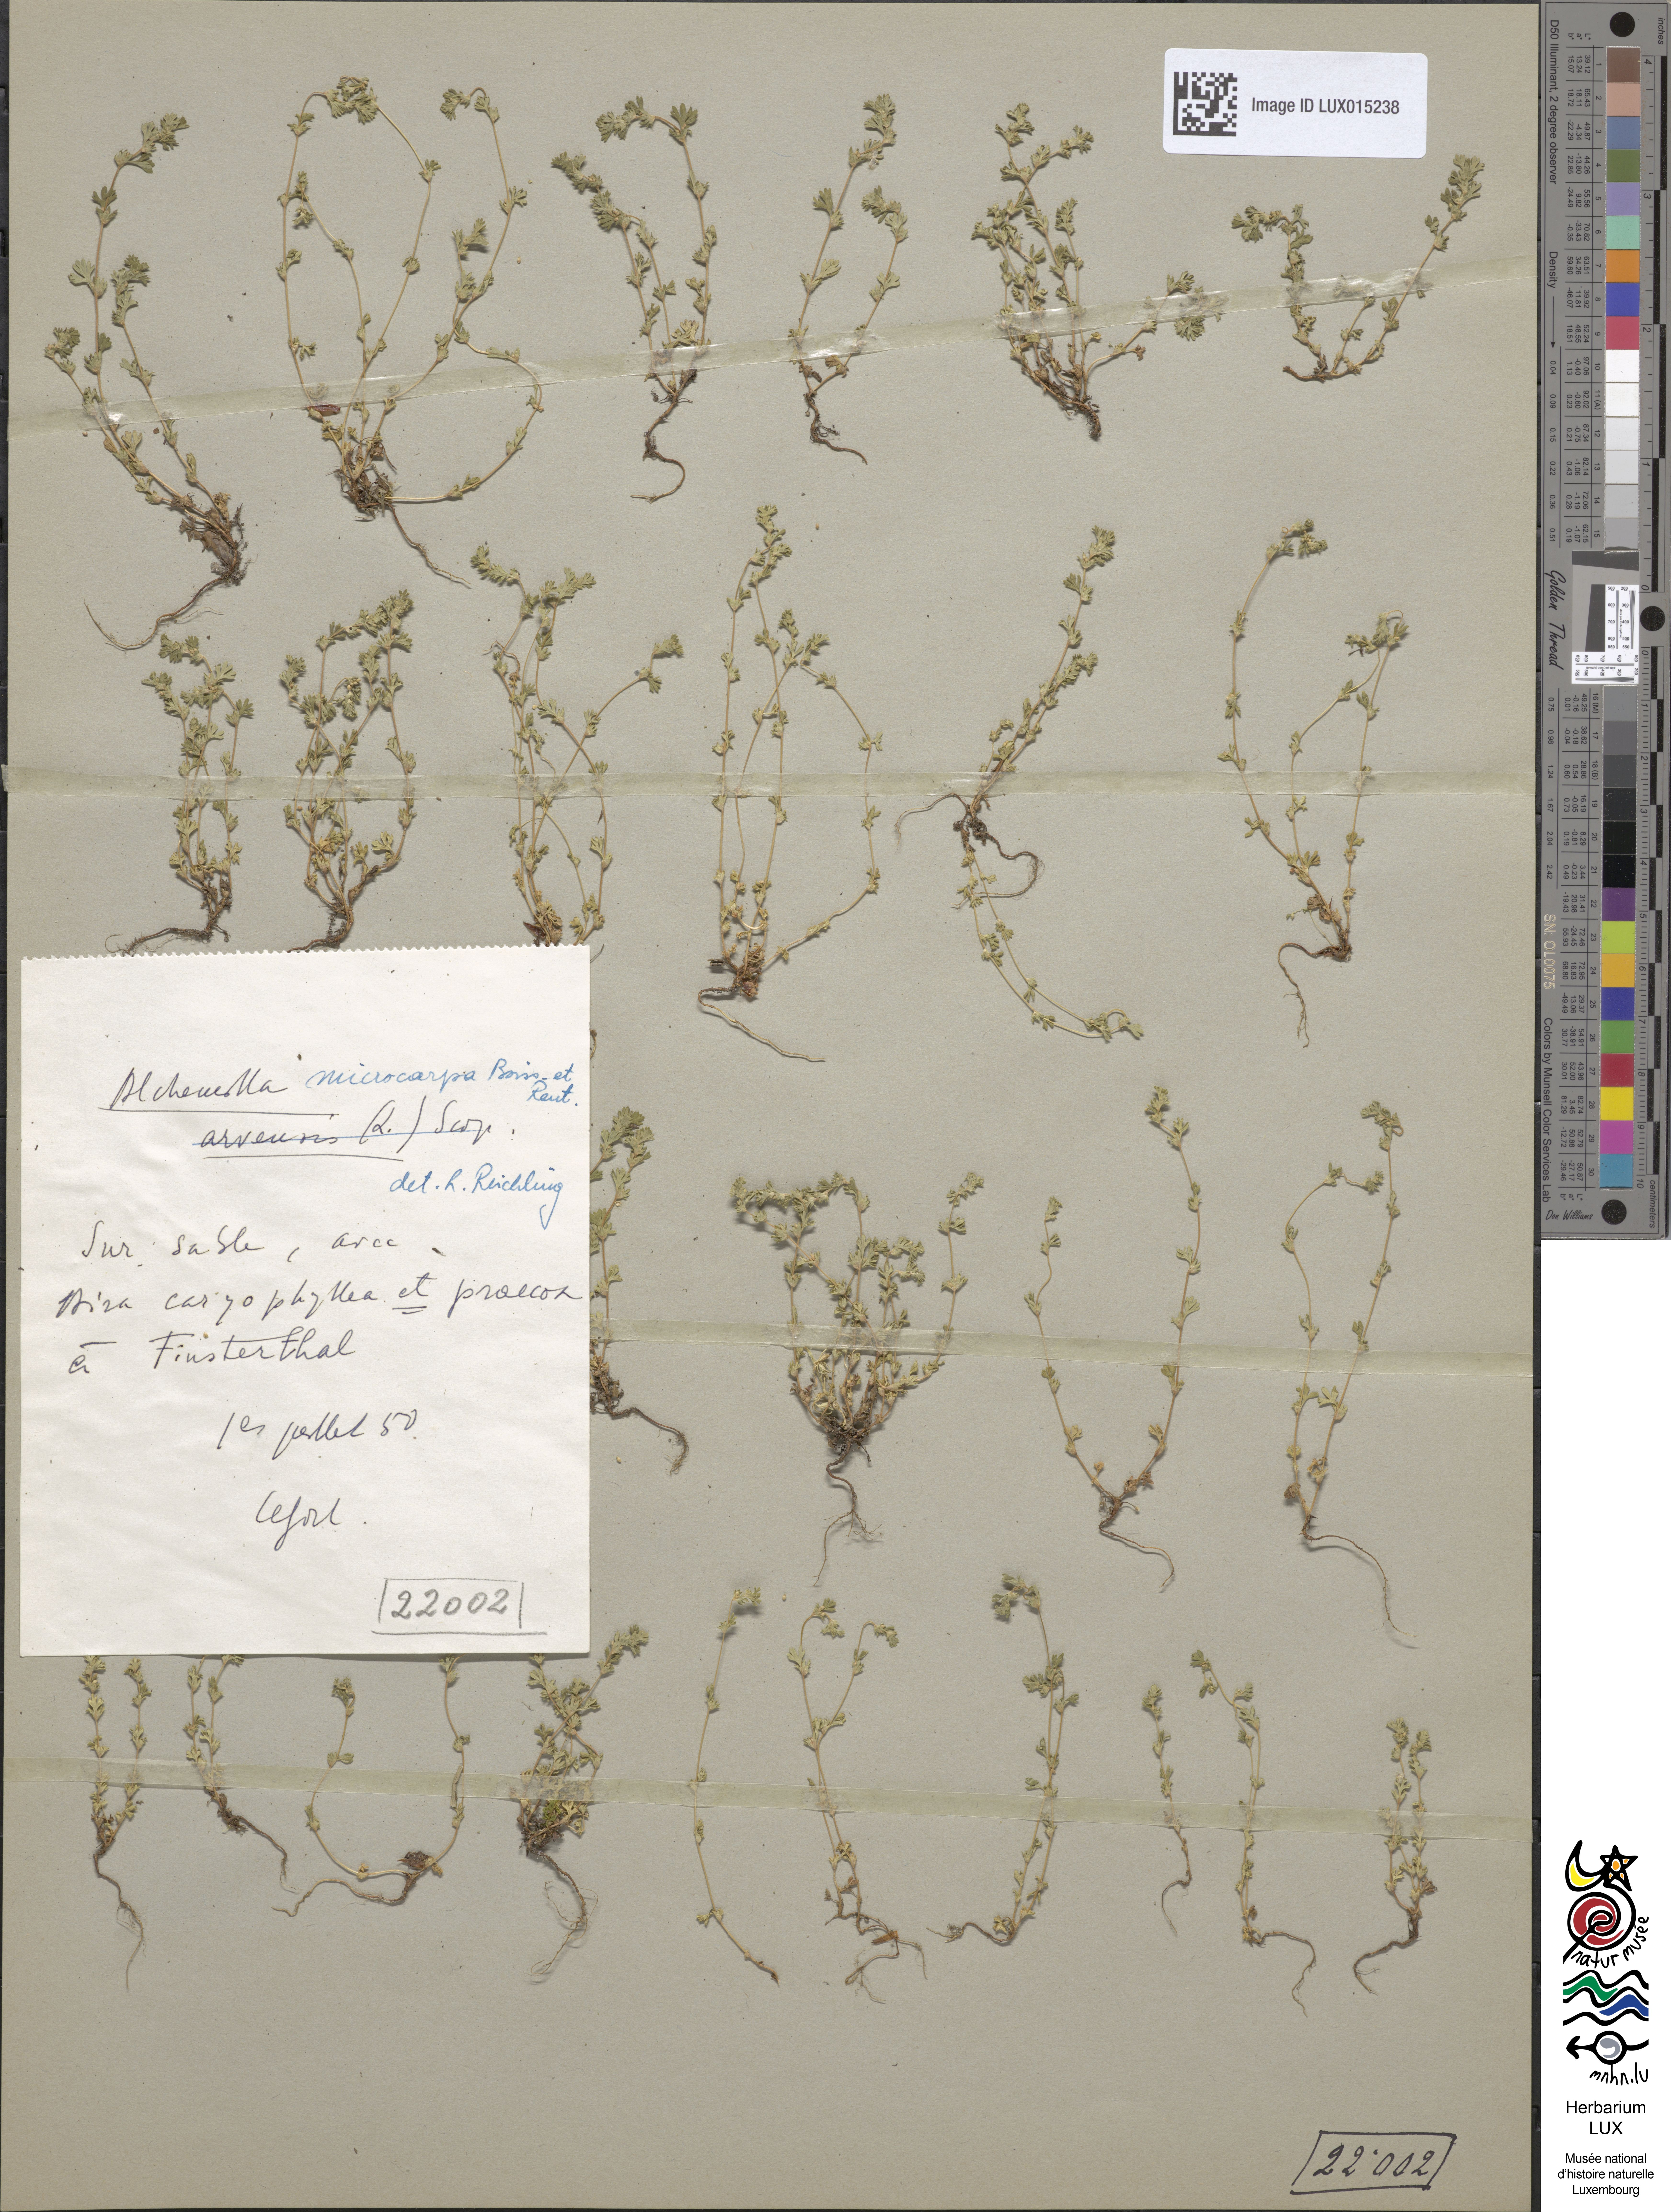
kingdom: Plantae
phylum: Tracheophyta
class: Magnoliopsida
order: Rosales
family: Rosaceae
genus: Aphanes
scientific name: Aphanes microcarpa
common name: Slender parsley piert
